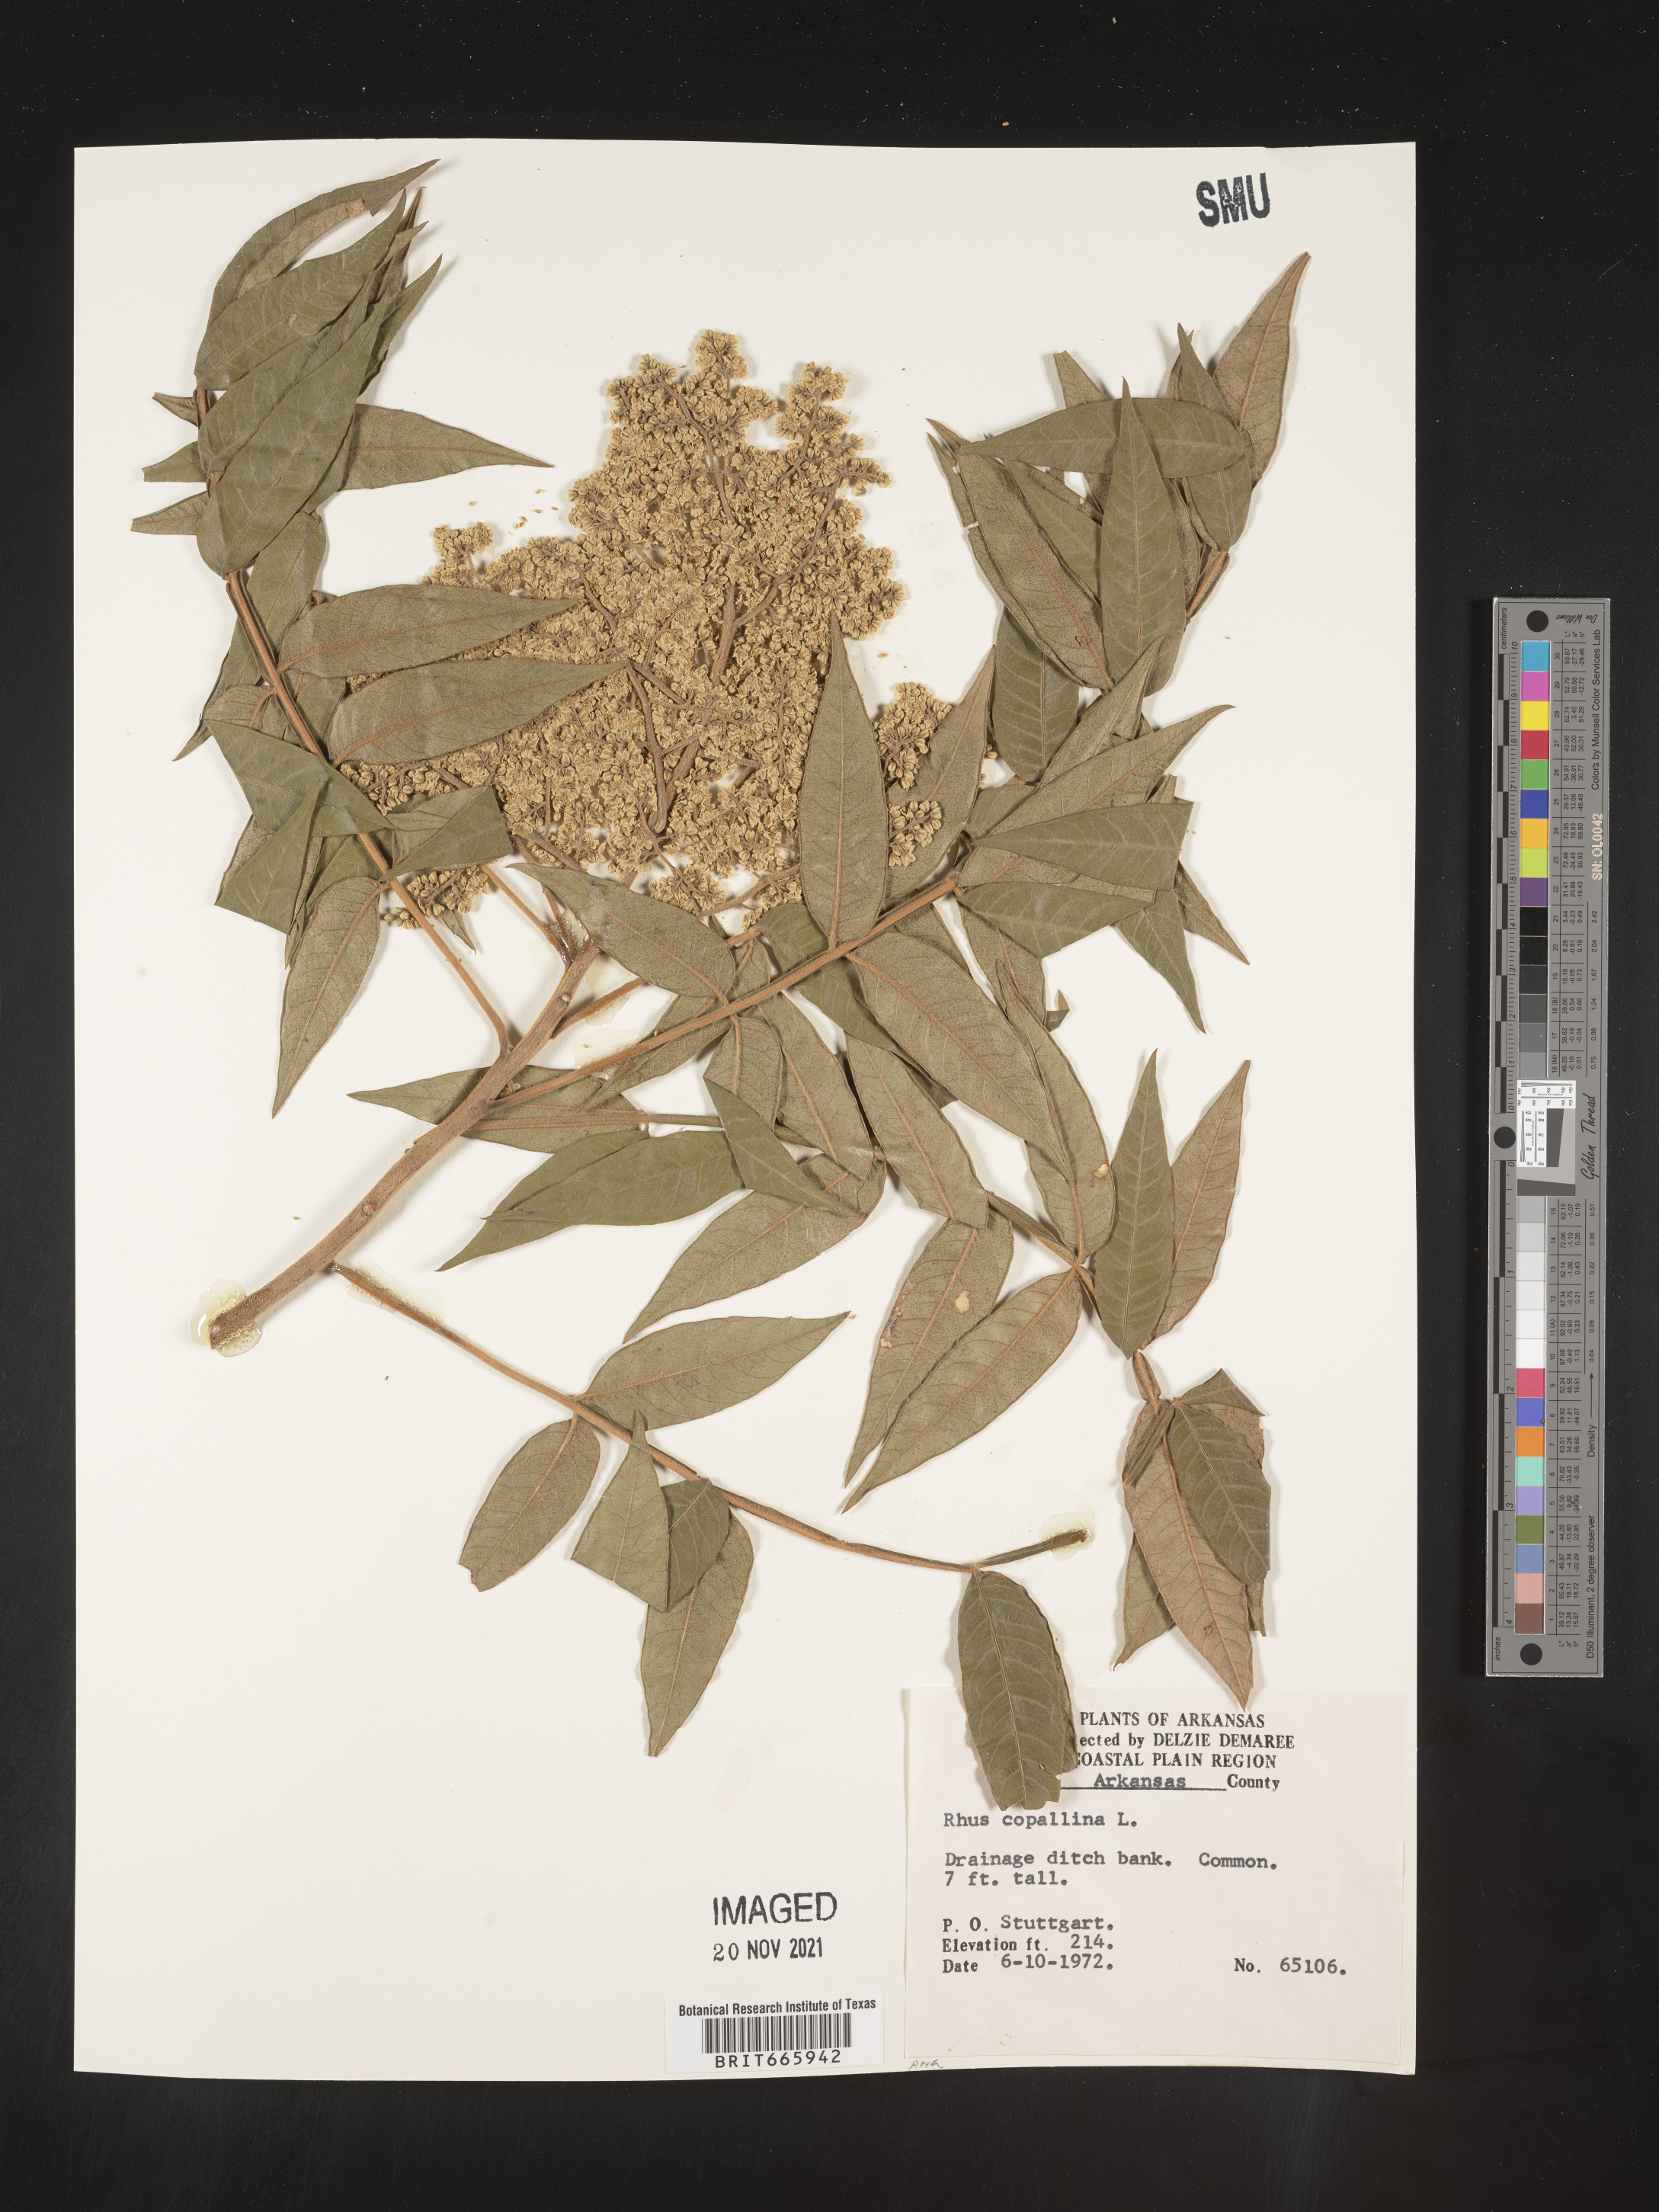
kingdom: Plantae
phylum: Tracheophyta
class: Magnoliopsida
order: Sapindales
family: Anacardiaceae
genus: Rhus
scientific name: Rhus copallina
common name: Shining sumac
